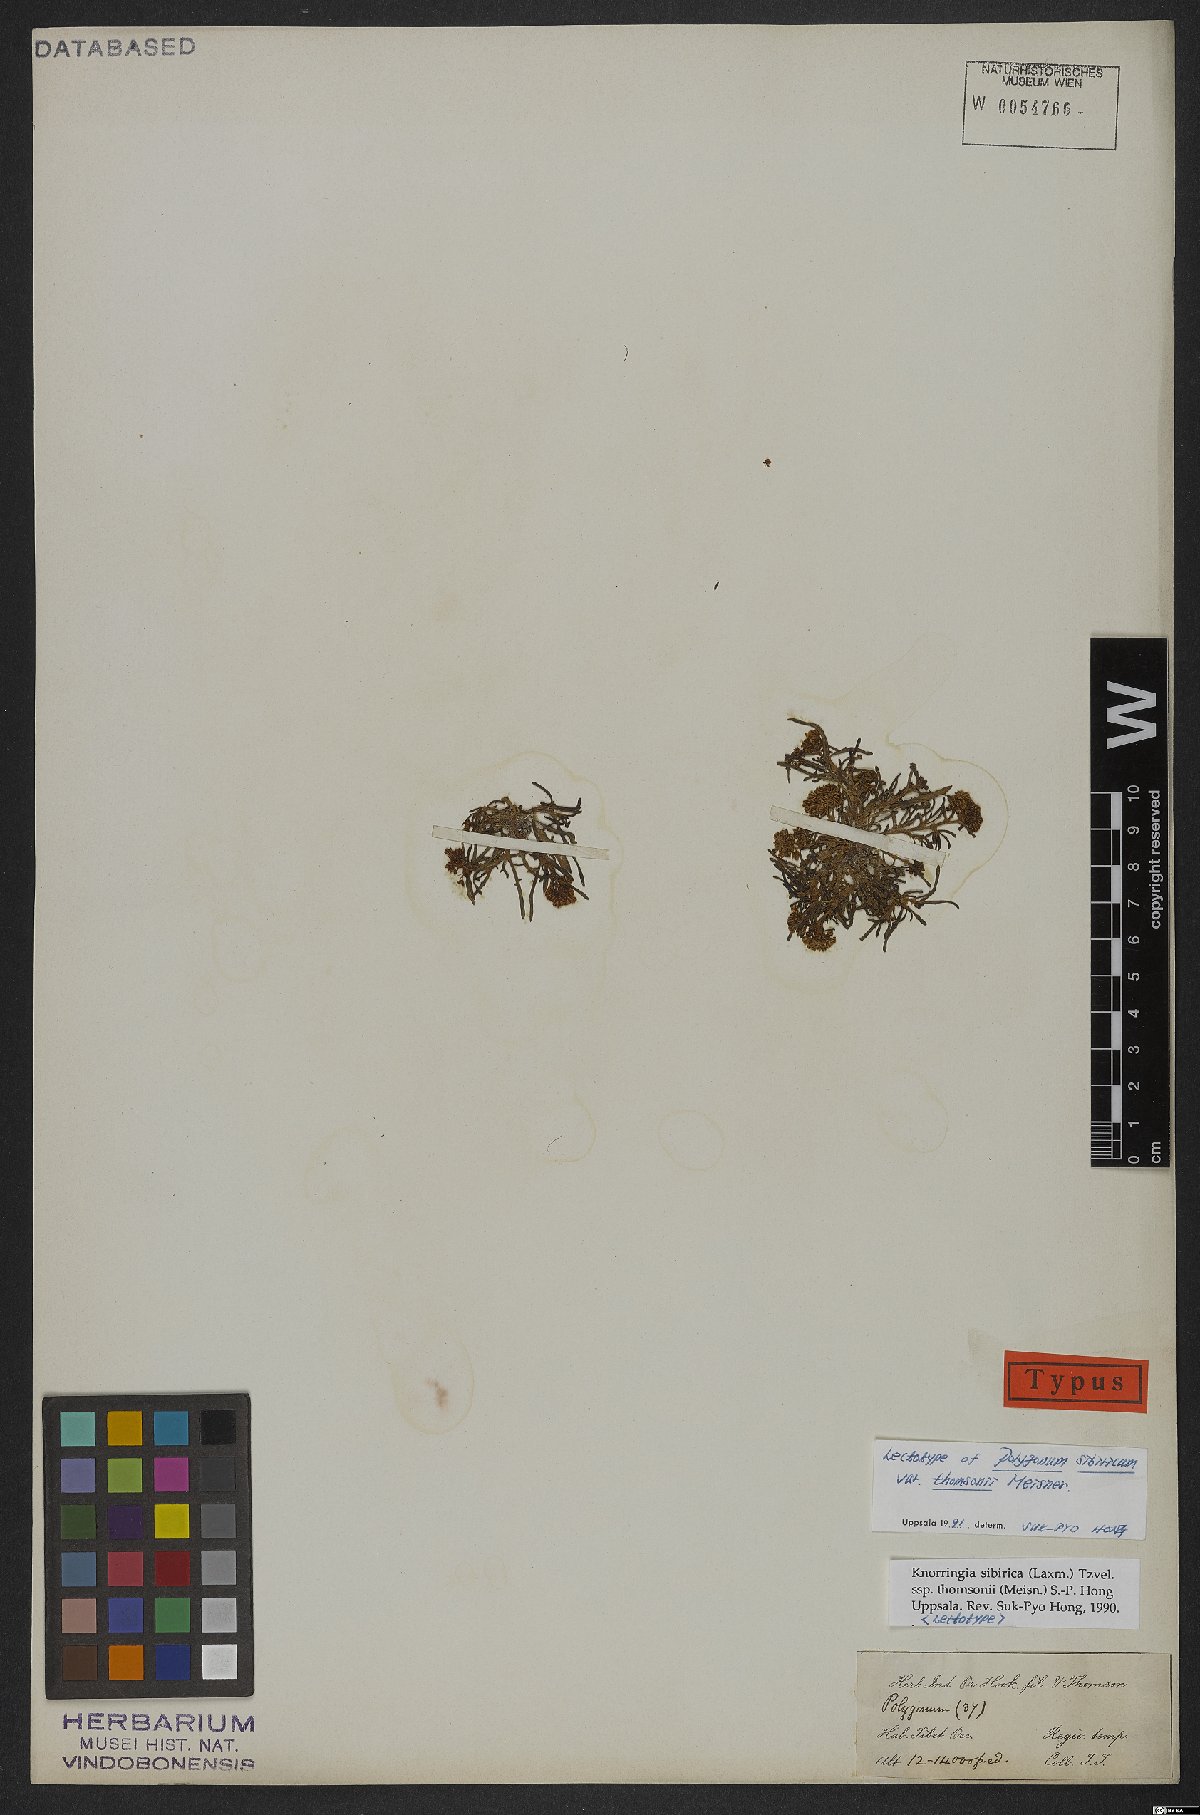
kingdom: Plantae
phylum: Tracheophyta
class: Magnoliopsida
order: Caryophyllales
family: Polygonaceae
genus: Knorringia
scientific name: Knorringia sibirica
